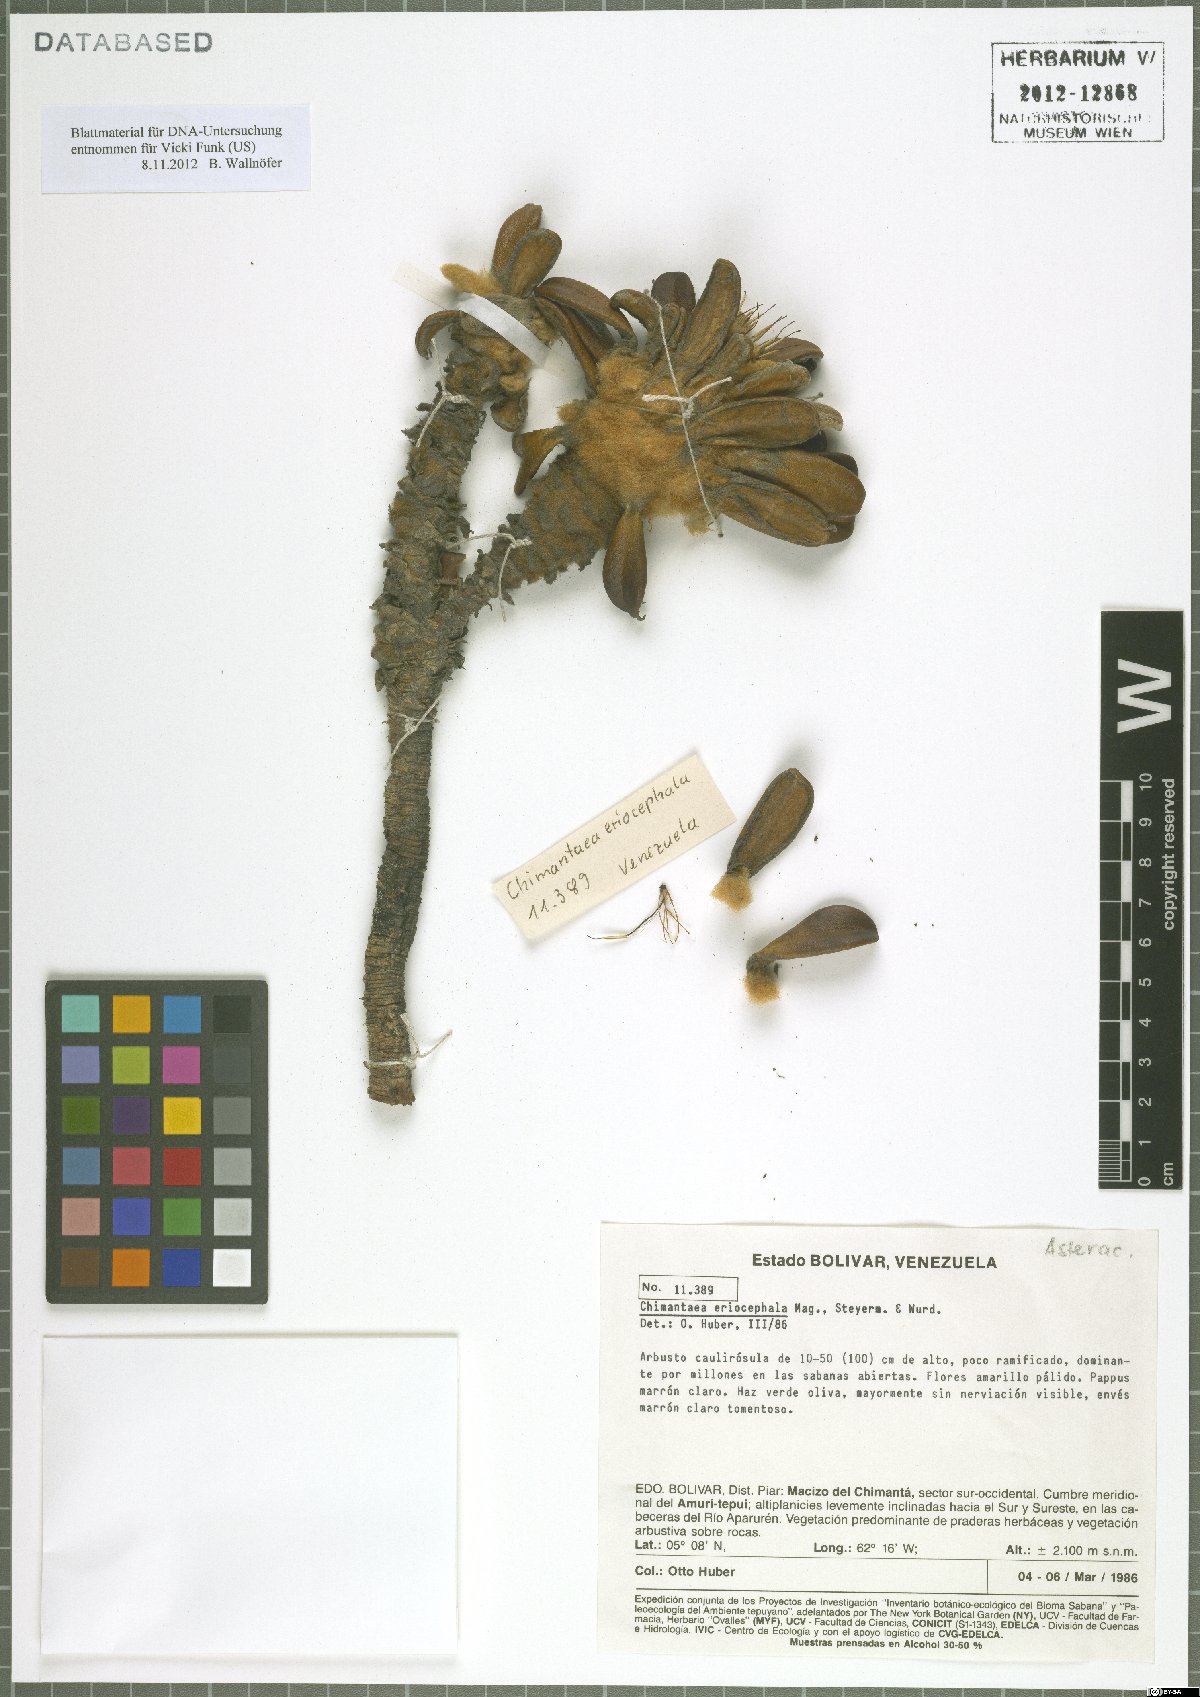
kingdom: Plantae
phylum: Tracheophyta
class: Magnoliopsida
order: Asterales
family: Asteraceae
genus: Chimantaea
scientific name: Chimantaea eriocephala
